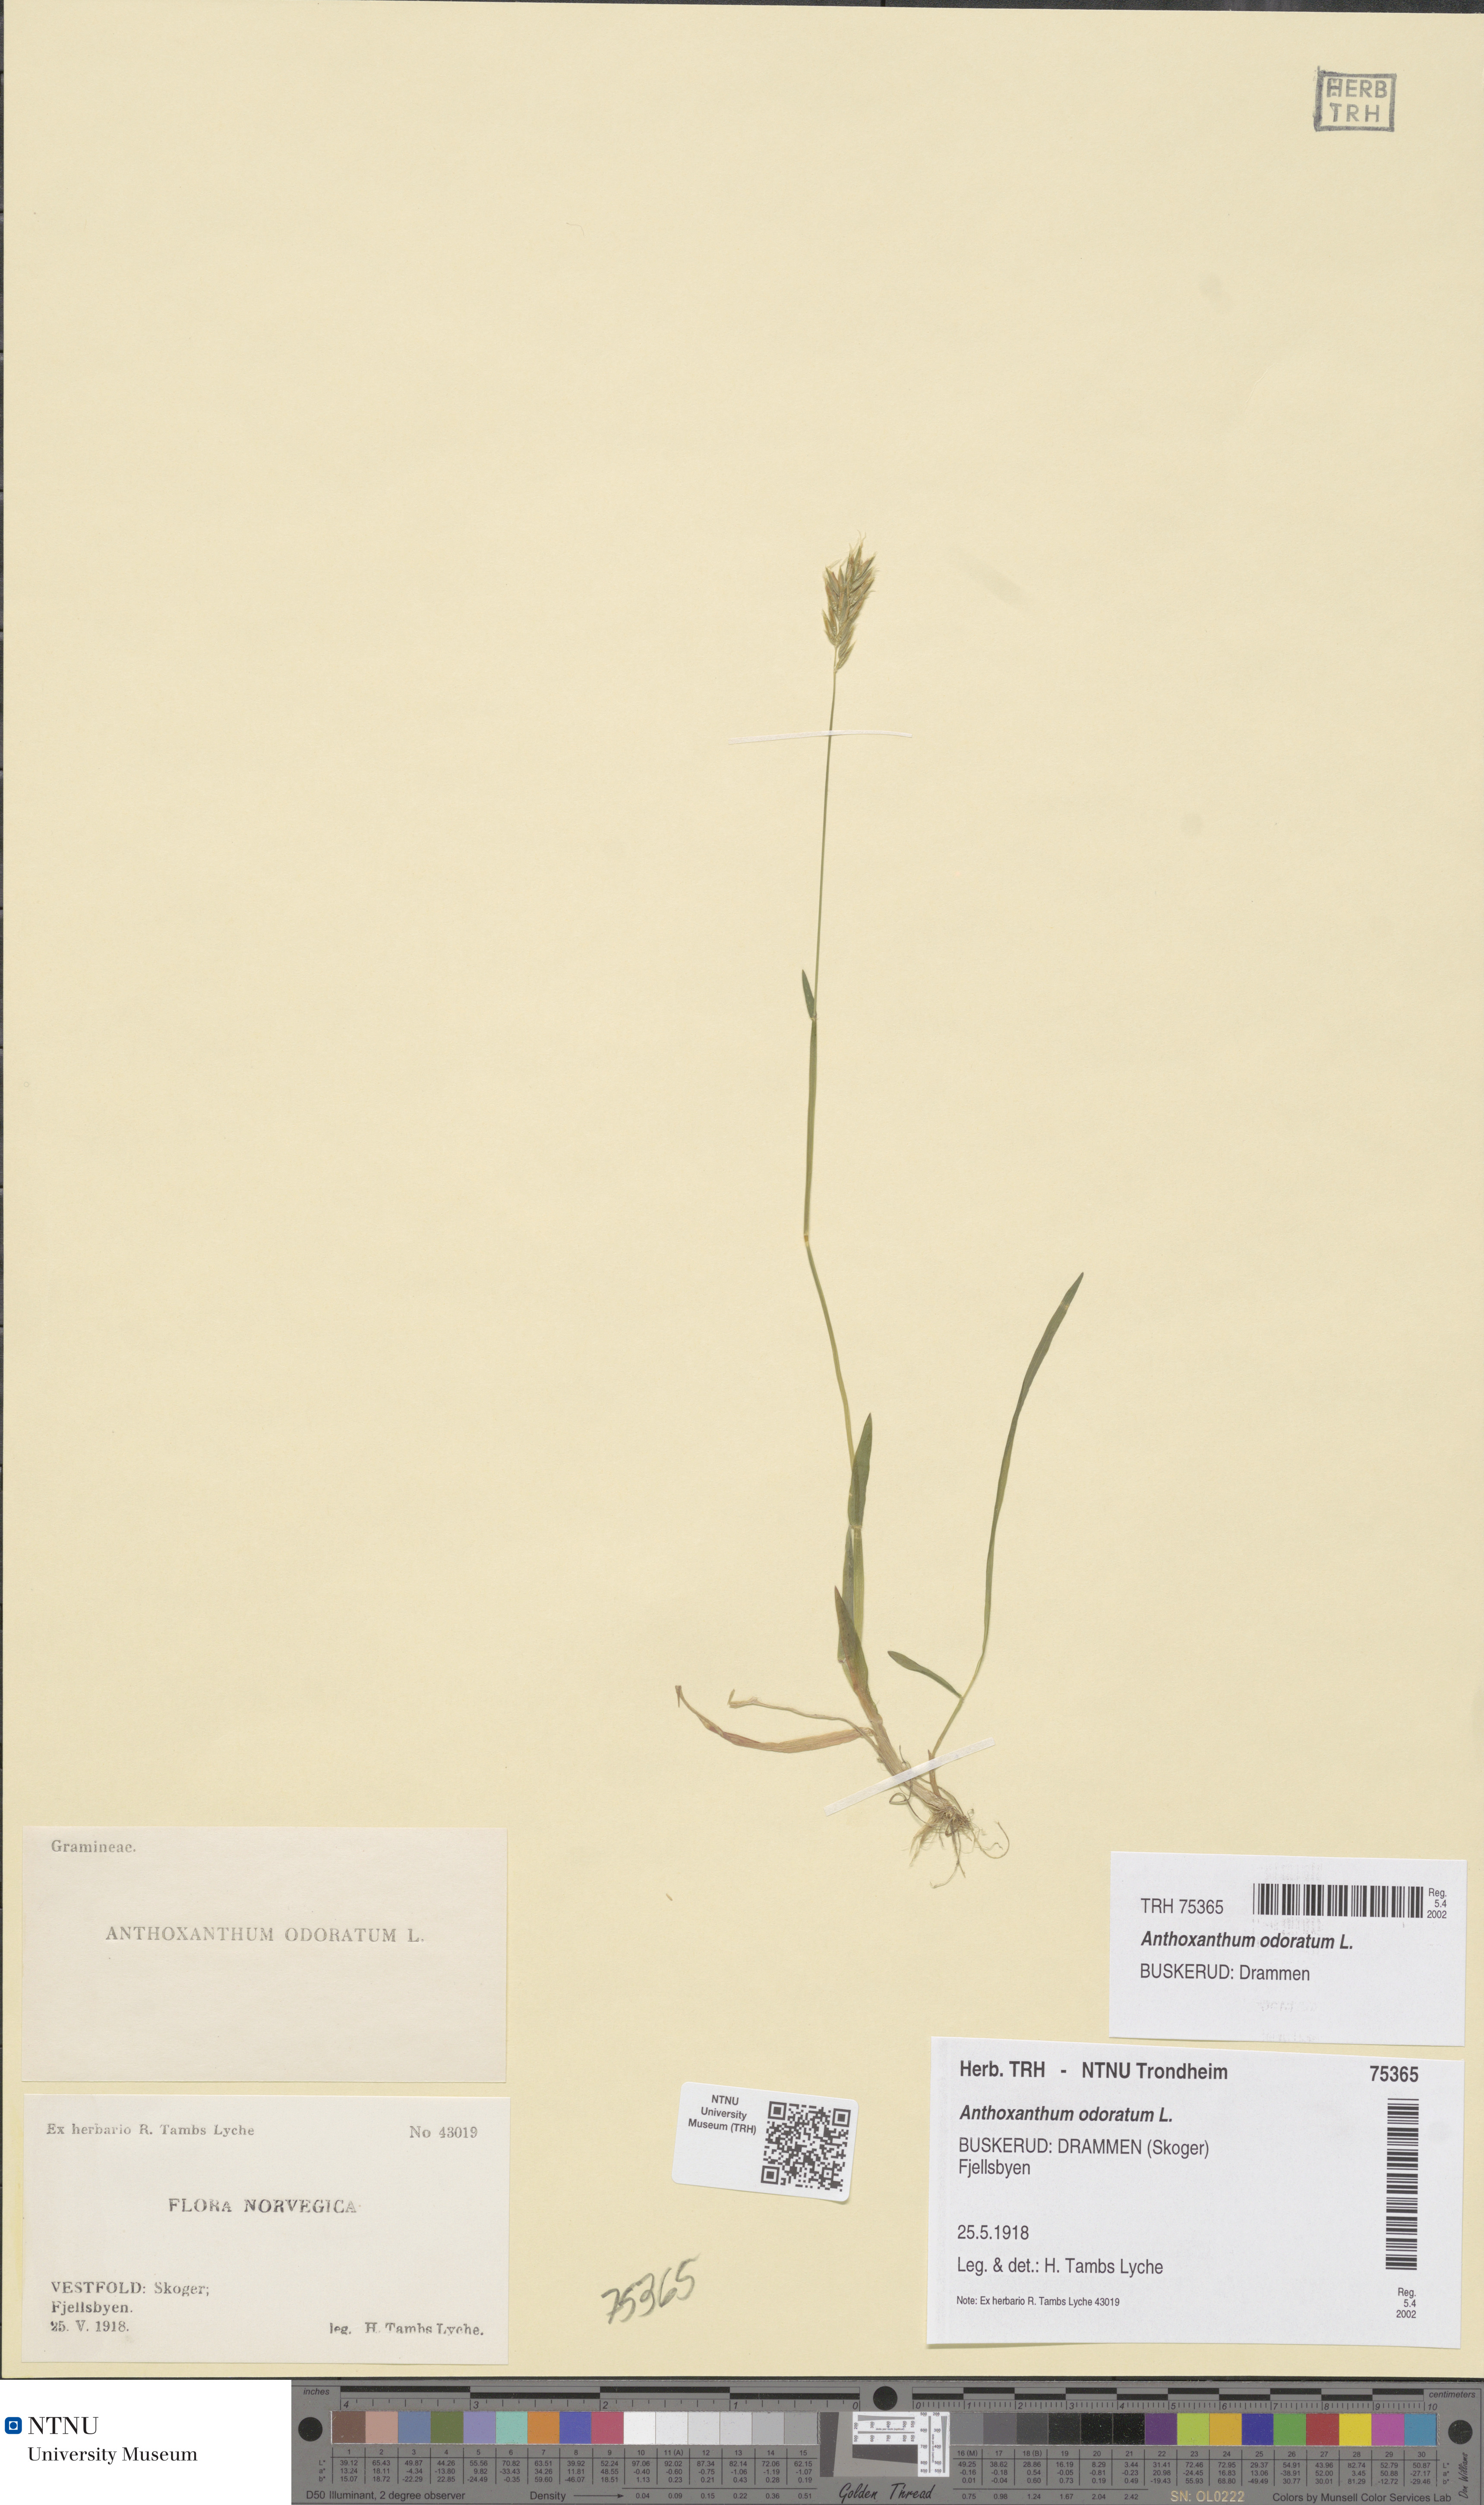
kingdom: Plantae
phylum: Tracheophyta
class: Liliopsida
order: Poales
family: Poaceae
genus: Anthoxanthum
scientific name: Anthoxanthum odoratum
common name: Sweet vernalgrass
